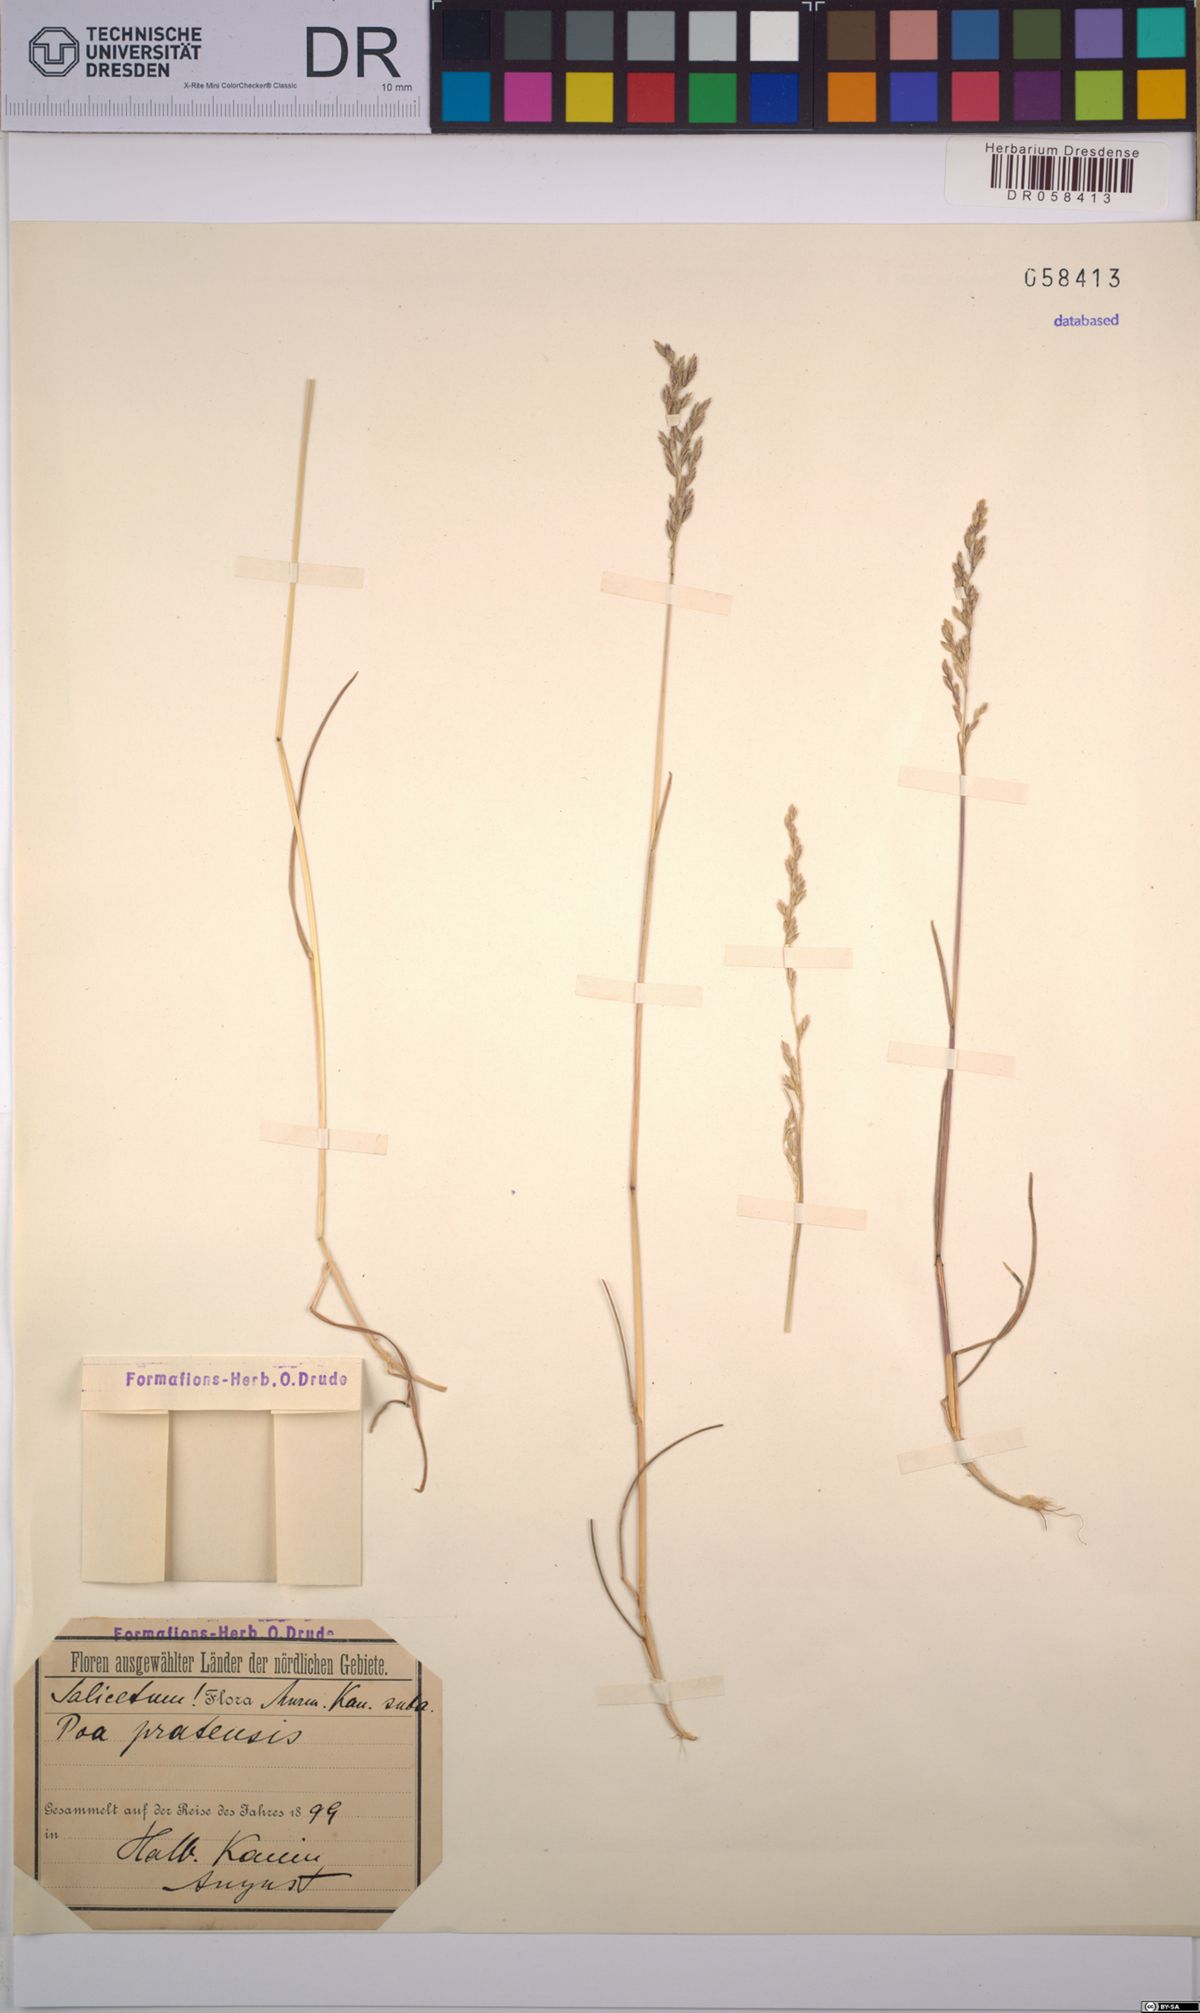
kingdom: Plantae
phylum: Tracheophyta
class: Liliopsida
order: Poales
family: Poaceae
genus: Poa
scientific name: Poa pratensis
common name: Kentucky bluegrass
